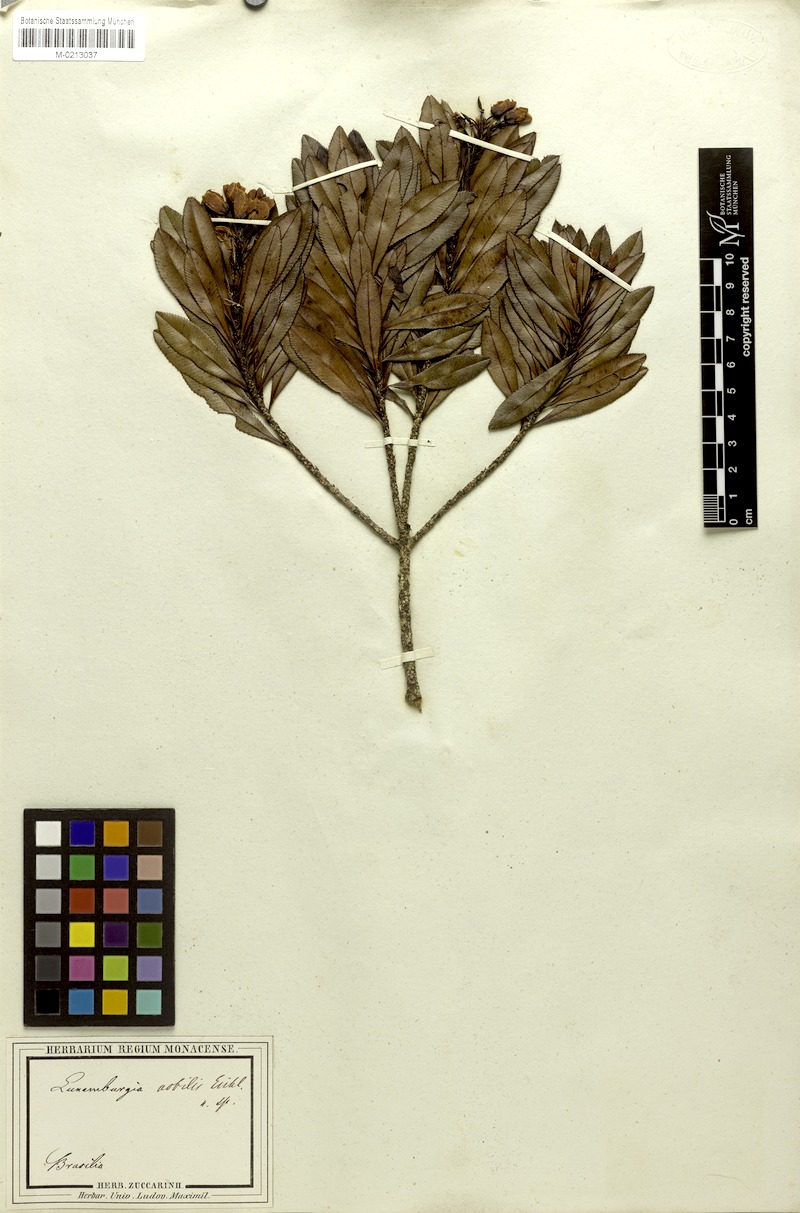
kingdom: Plantae
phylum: Tracheophyta
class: Magnoliopsida
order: Malpighiales
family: Ochnaceae
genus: Luxemburgia
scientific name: Luxemburgia nobilis
